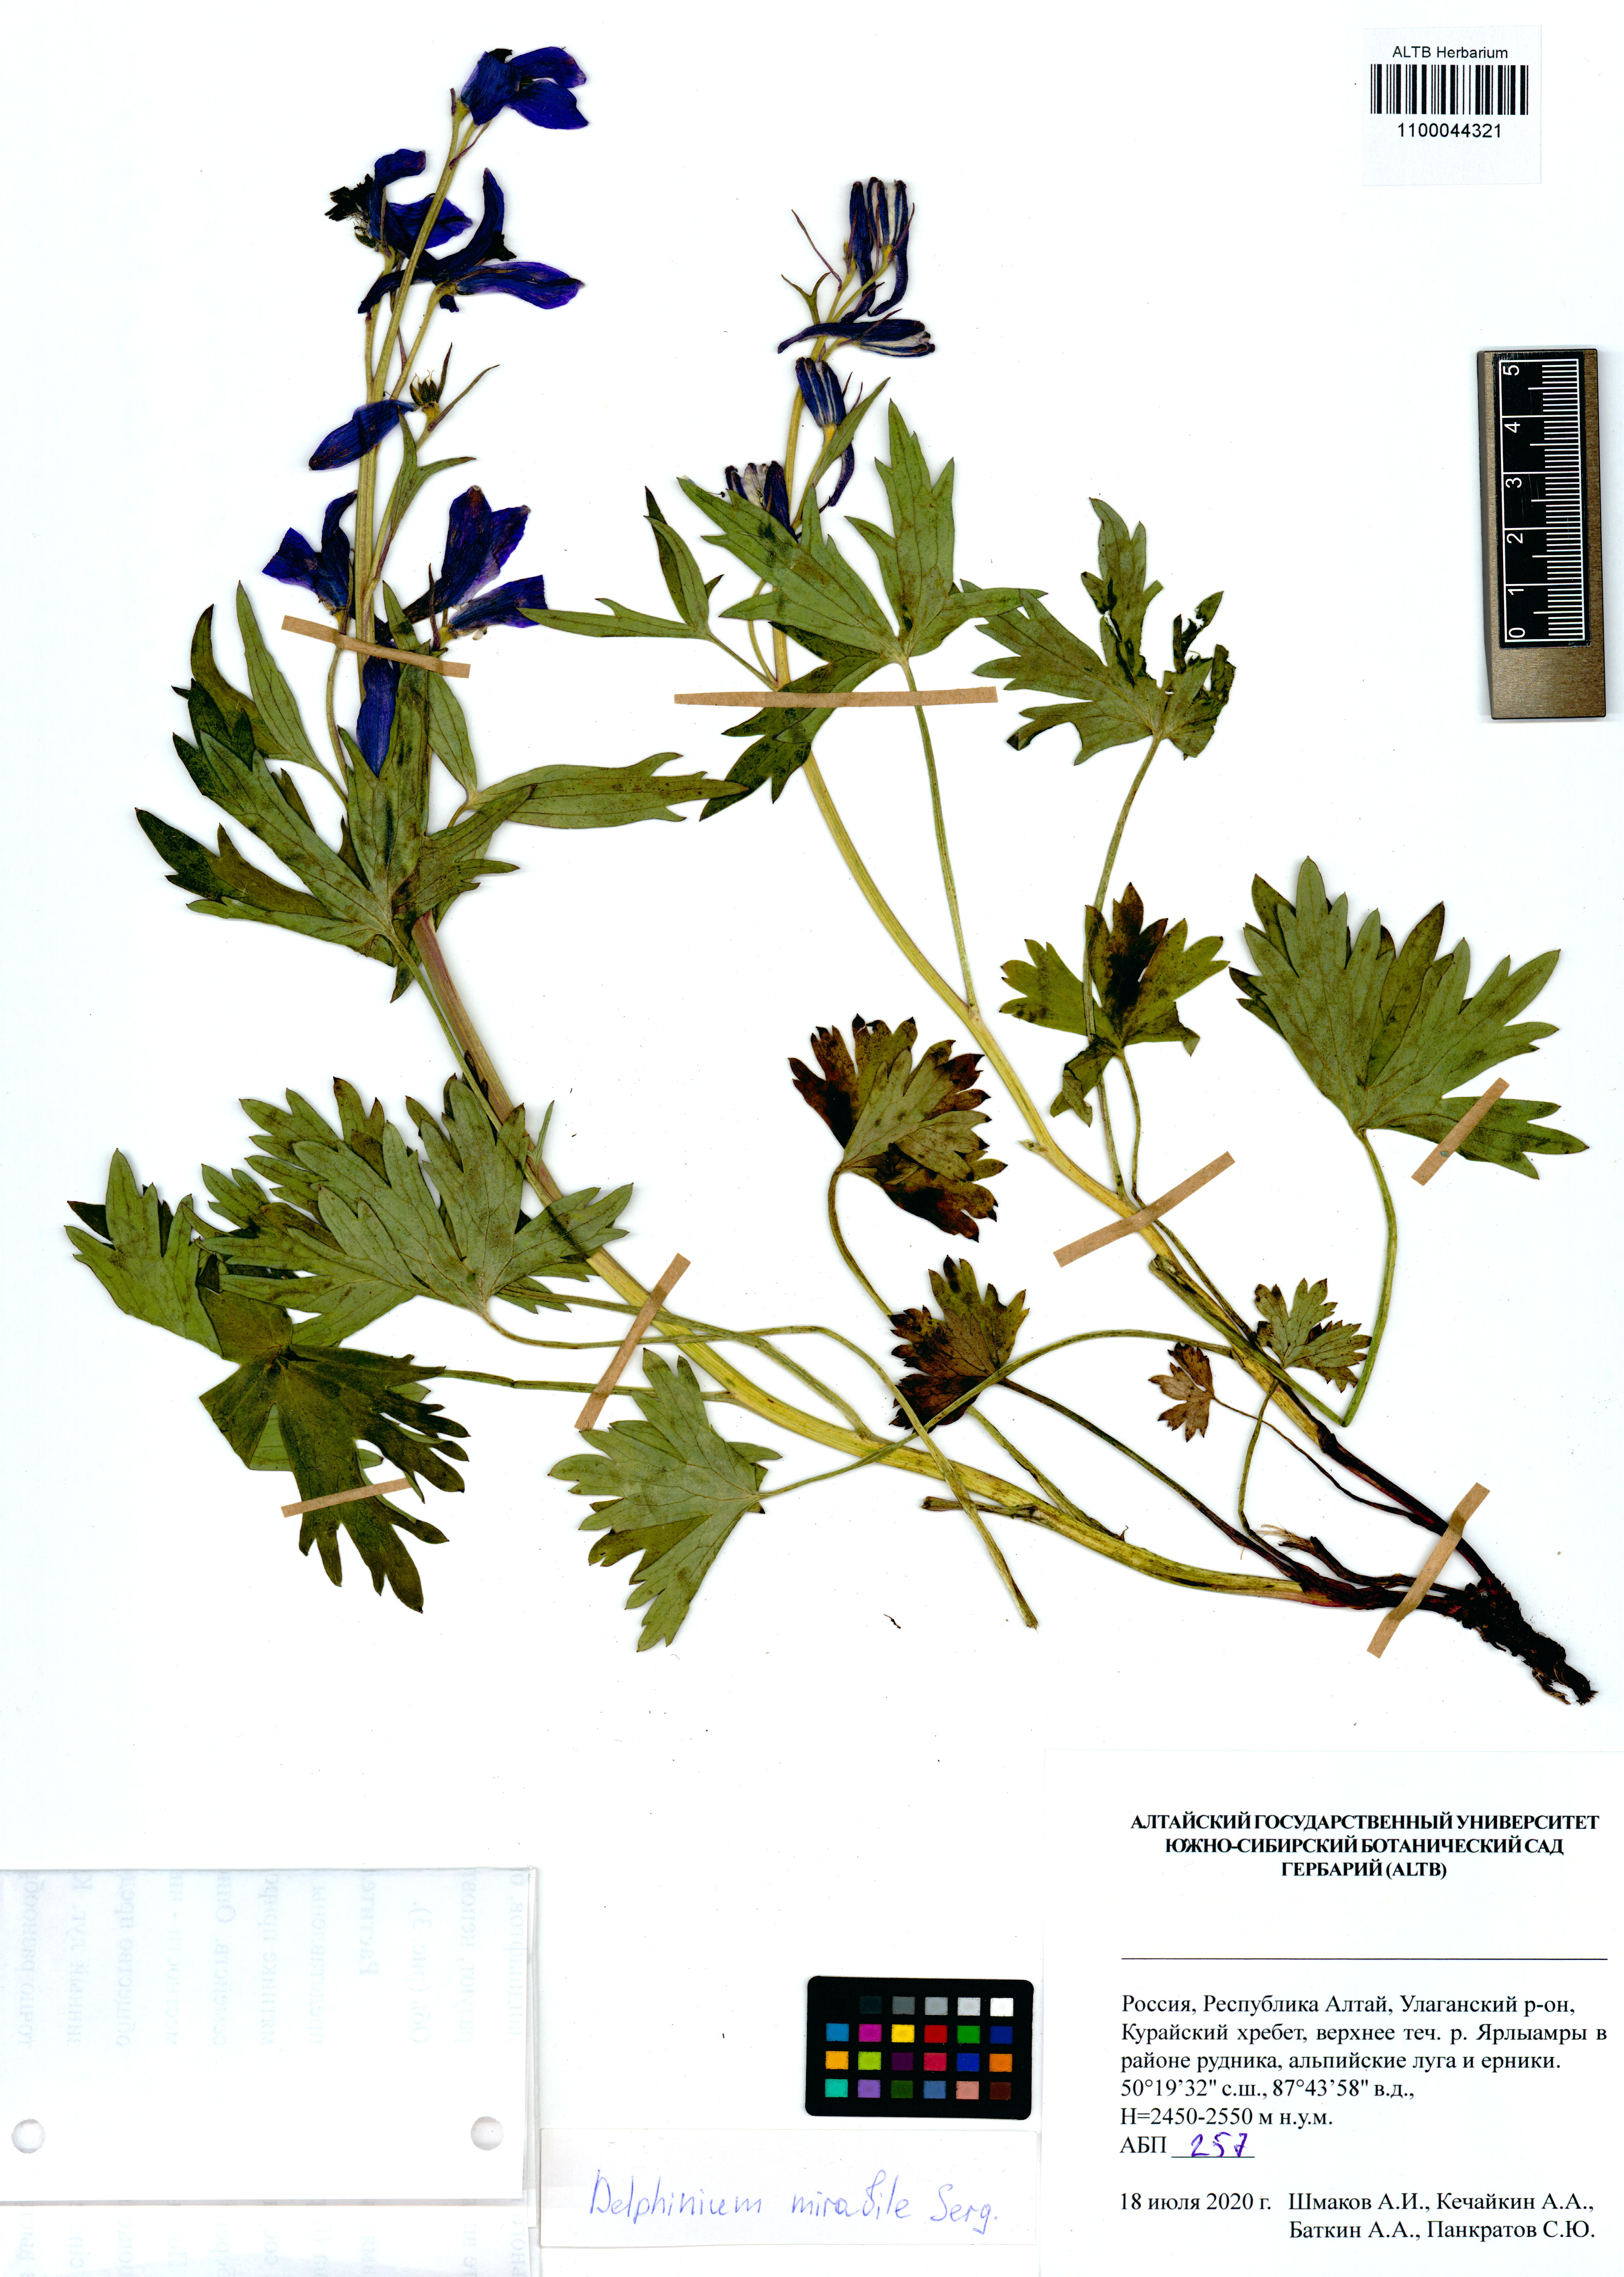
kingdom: Plantae
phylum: Tracheophyta
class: Magnoliopsida
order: Ranunculales
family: Ranunculaceae
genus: Delphinium
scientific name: Delphinium mirabile
